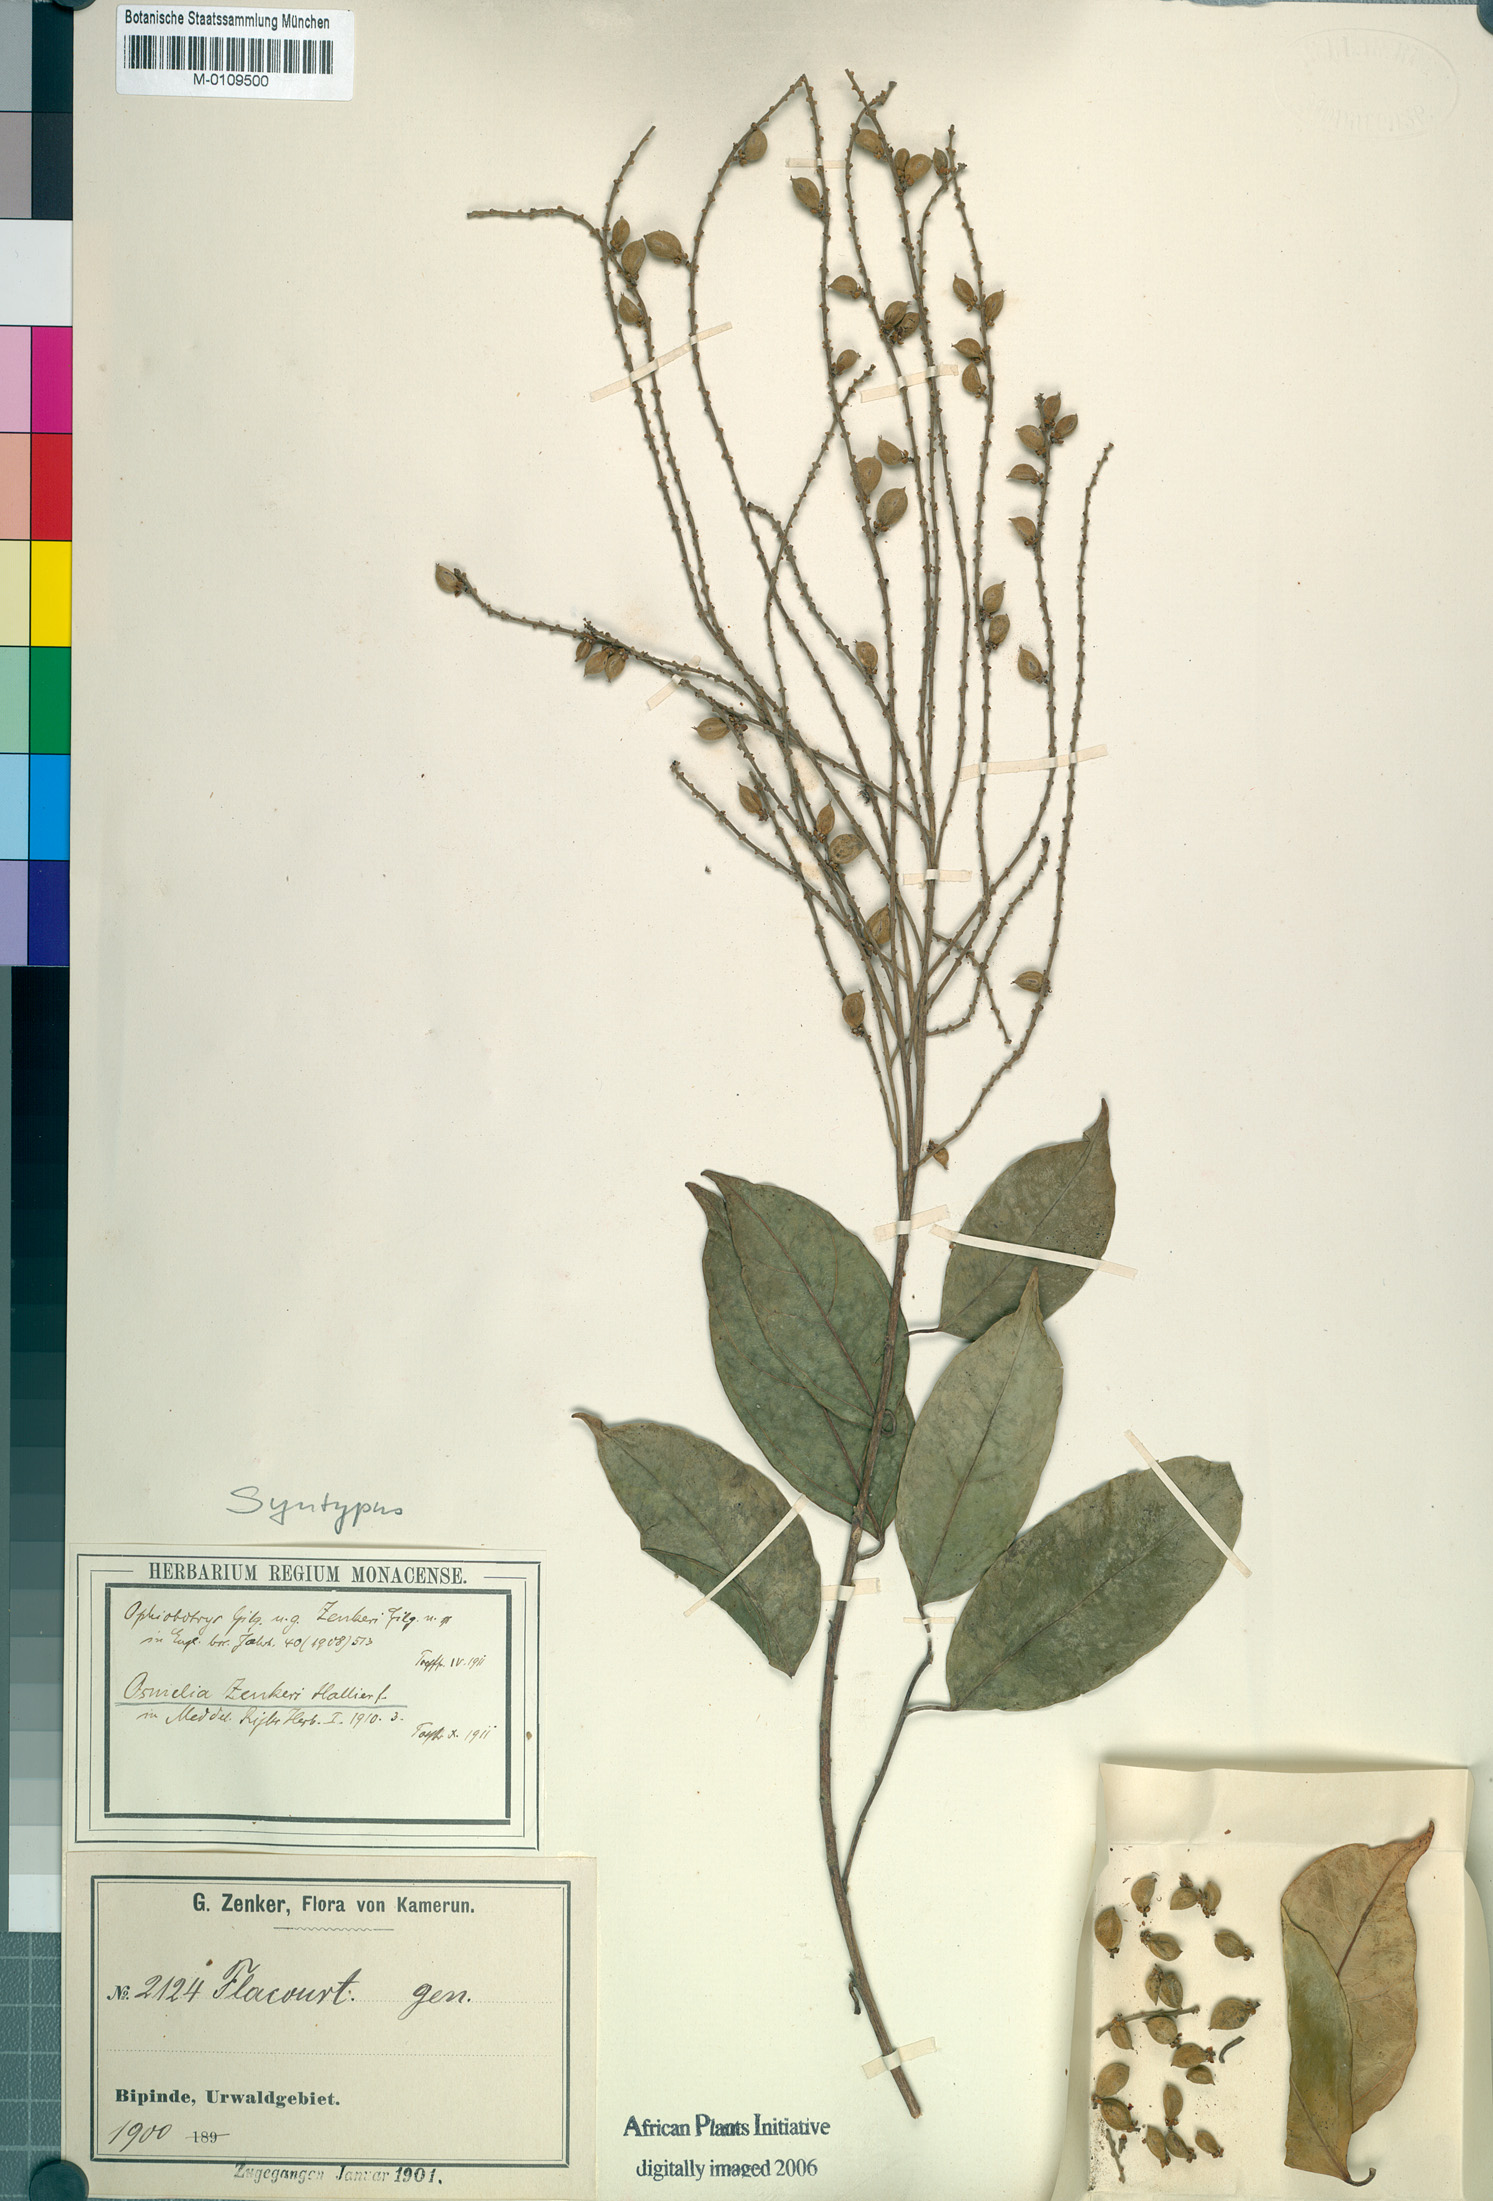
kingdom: Plantae
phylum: Tracheophyta
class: Magnoliopsida
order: Malpighiales
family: Salicaceae
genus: Ophiobotrys
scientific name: Ophiobotrys zenkeri
